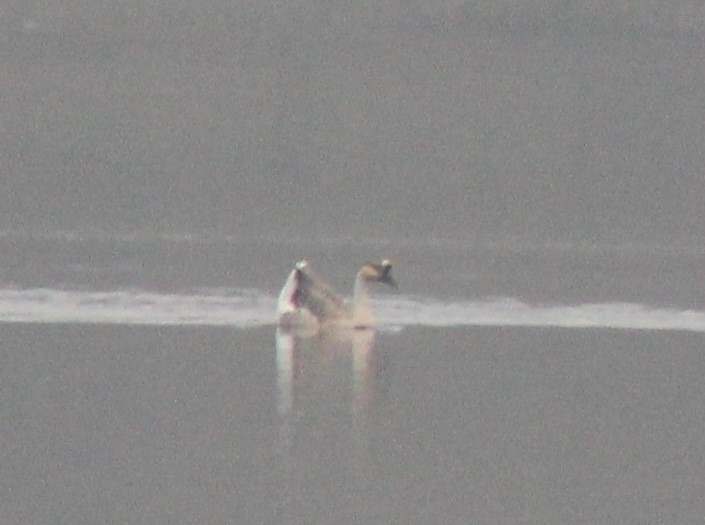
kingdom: Animalia
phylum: Chordata
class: Aves
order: Anseriformes
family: Anatidae
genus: Anser
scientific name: Anser cygnoides
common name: Svanegås
